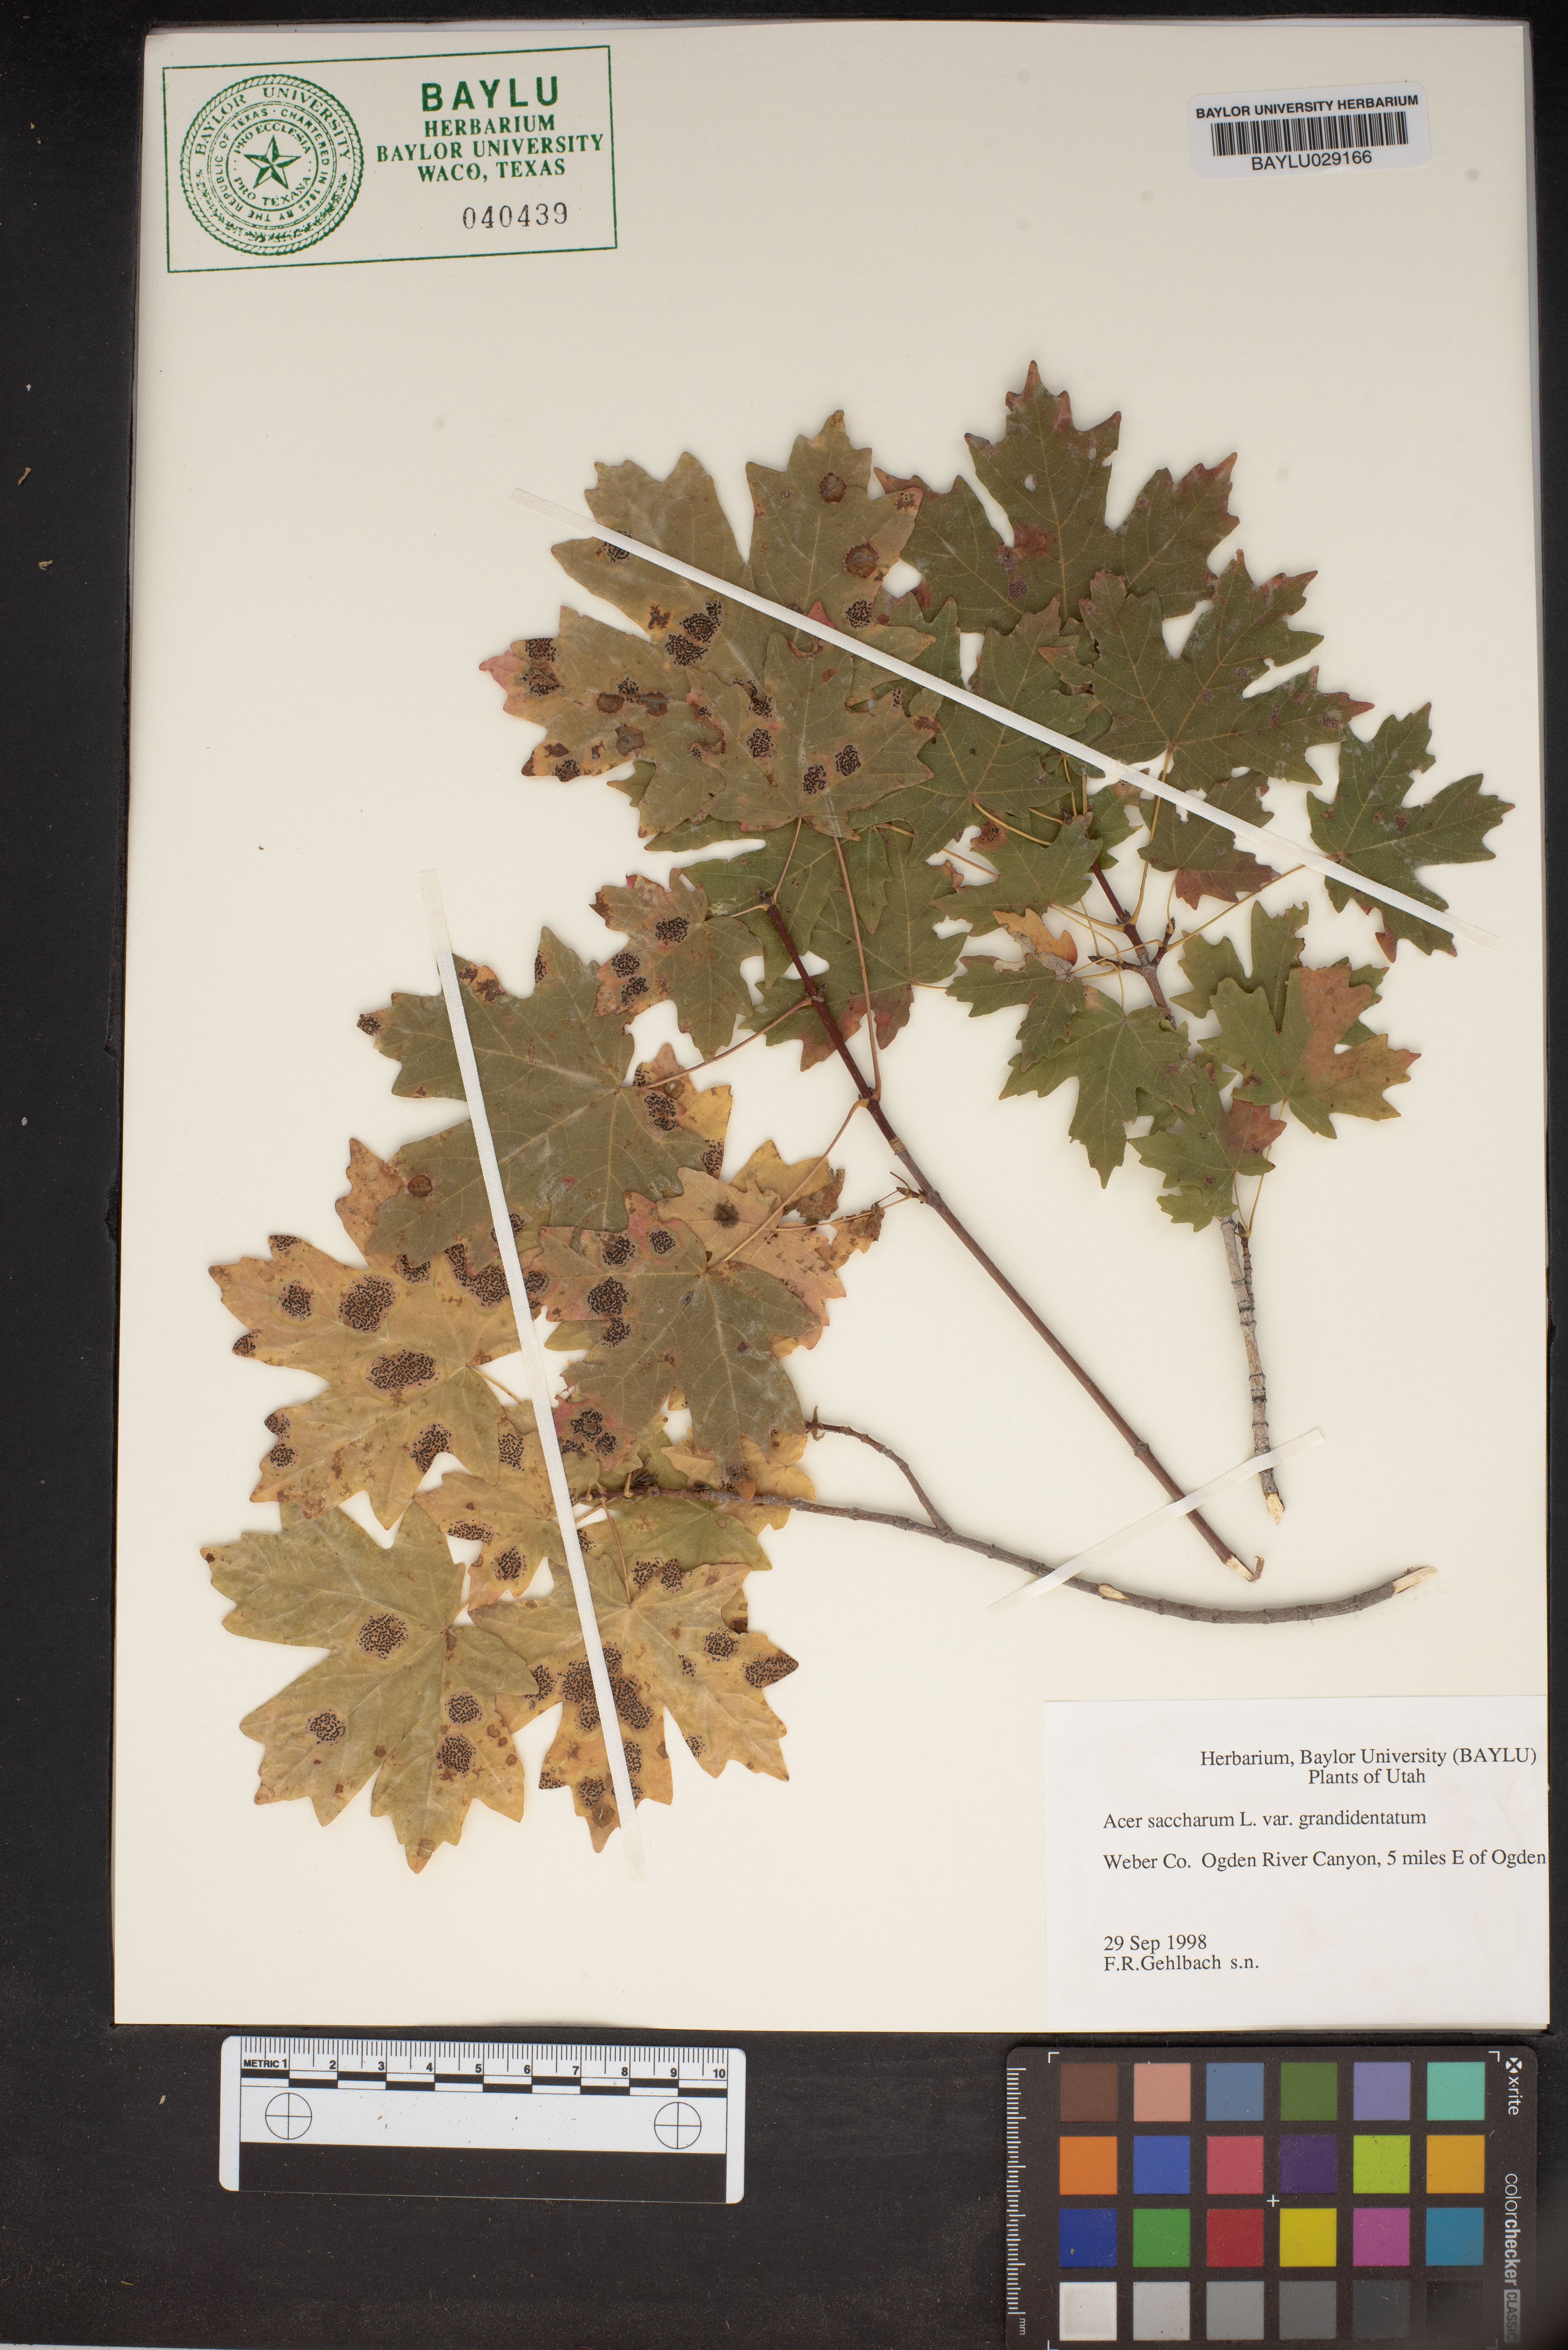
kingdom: Plantae
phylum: Tracheophyta
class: Magnoliopsida
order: Sapindales
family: Sapindaceae
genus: Acer
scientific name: Acer grandidentatum
